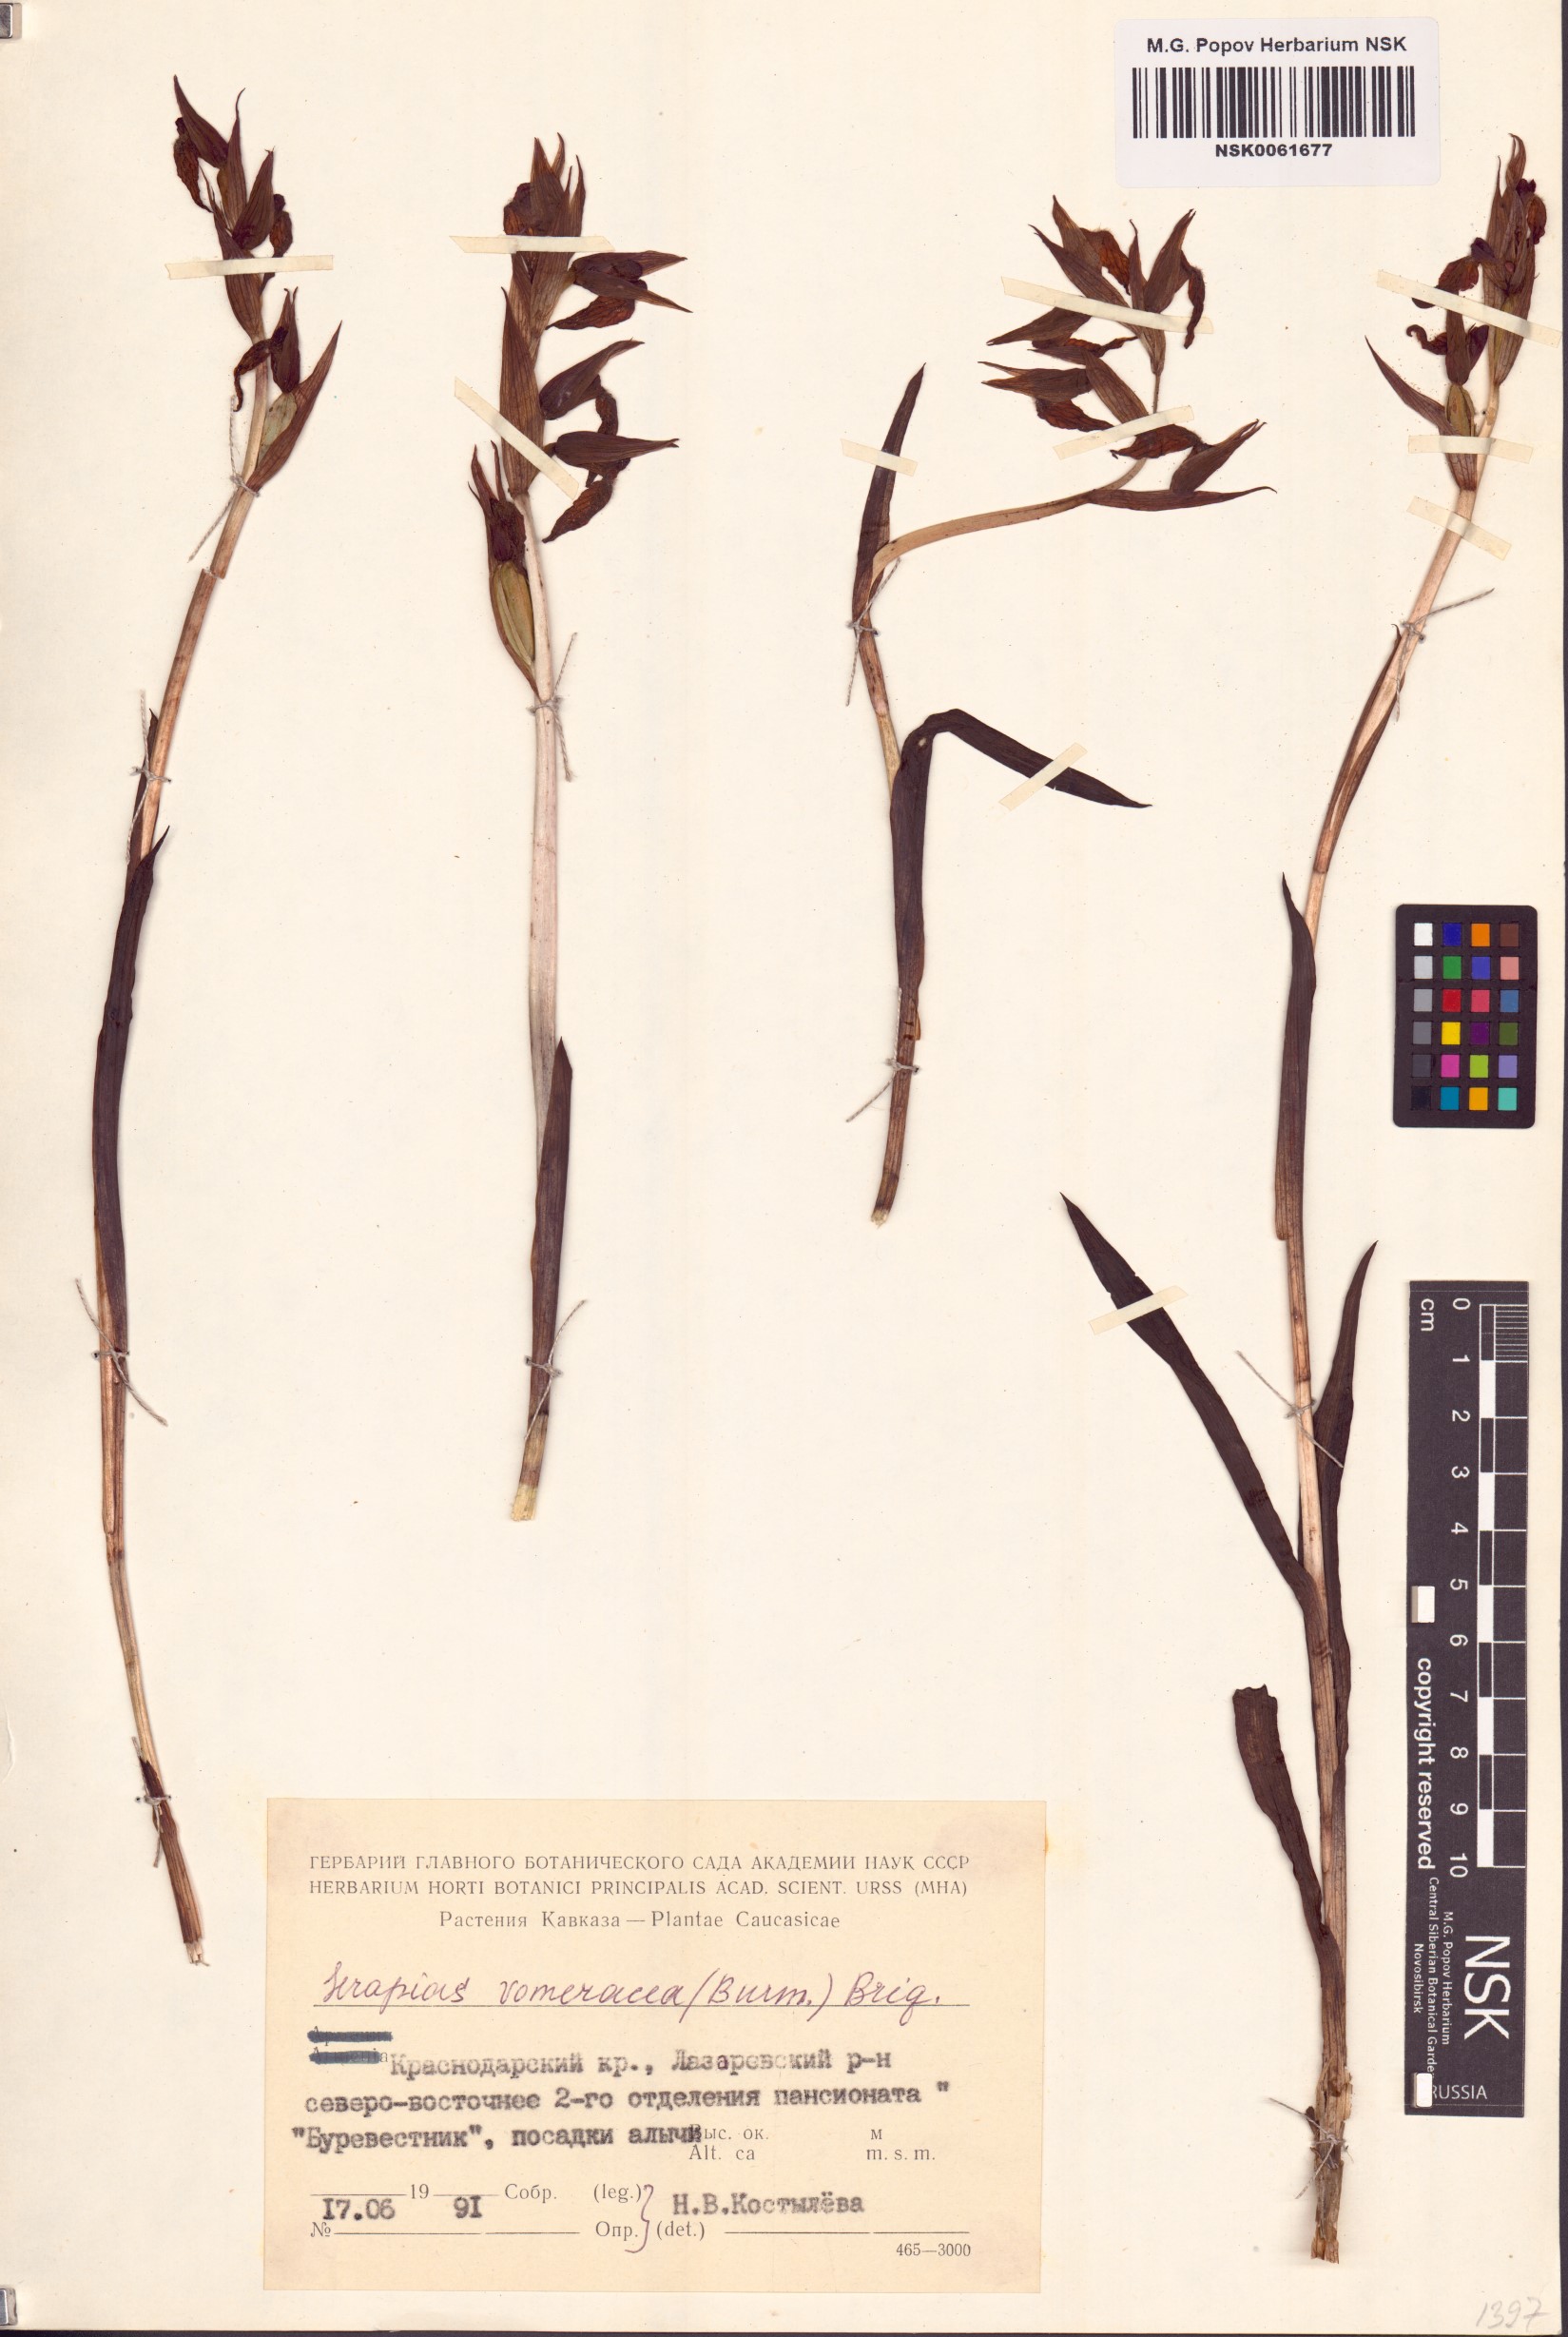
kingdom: Plantae
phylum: Tracheophyta
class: Liliopsida
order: Asparagales
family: Orchidaceae
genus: Serapias
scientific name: Serapias vomeracea
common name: Long-lipped tongue-orchid
